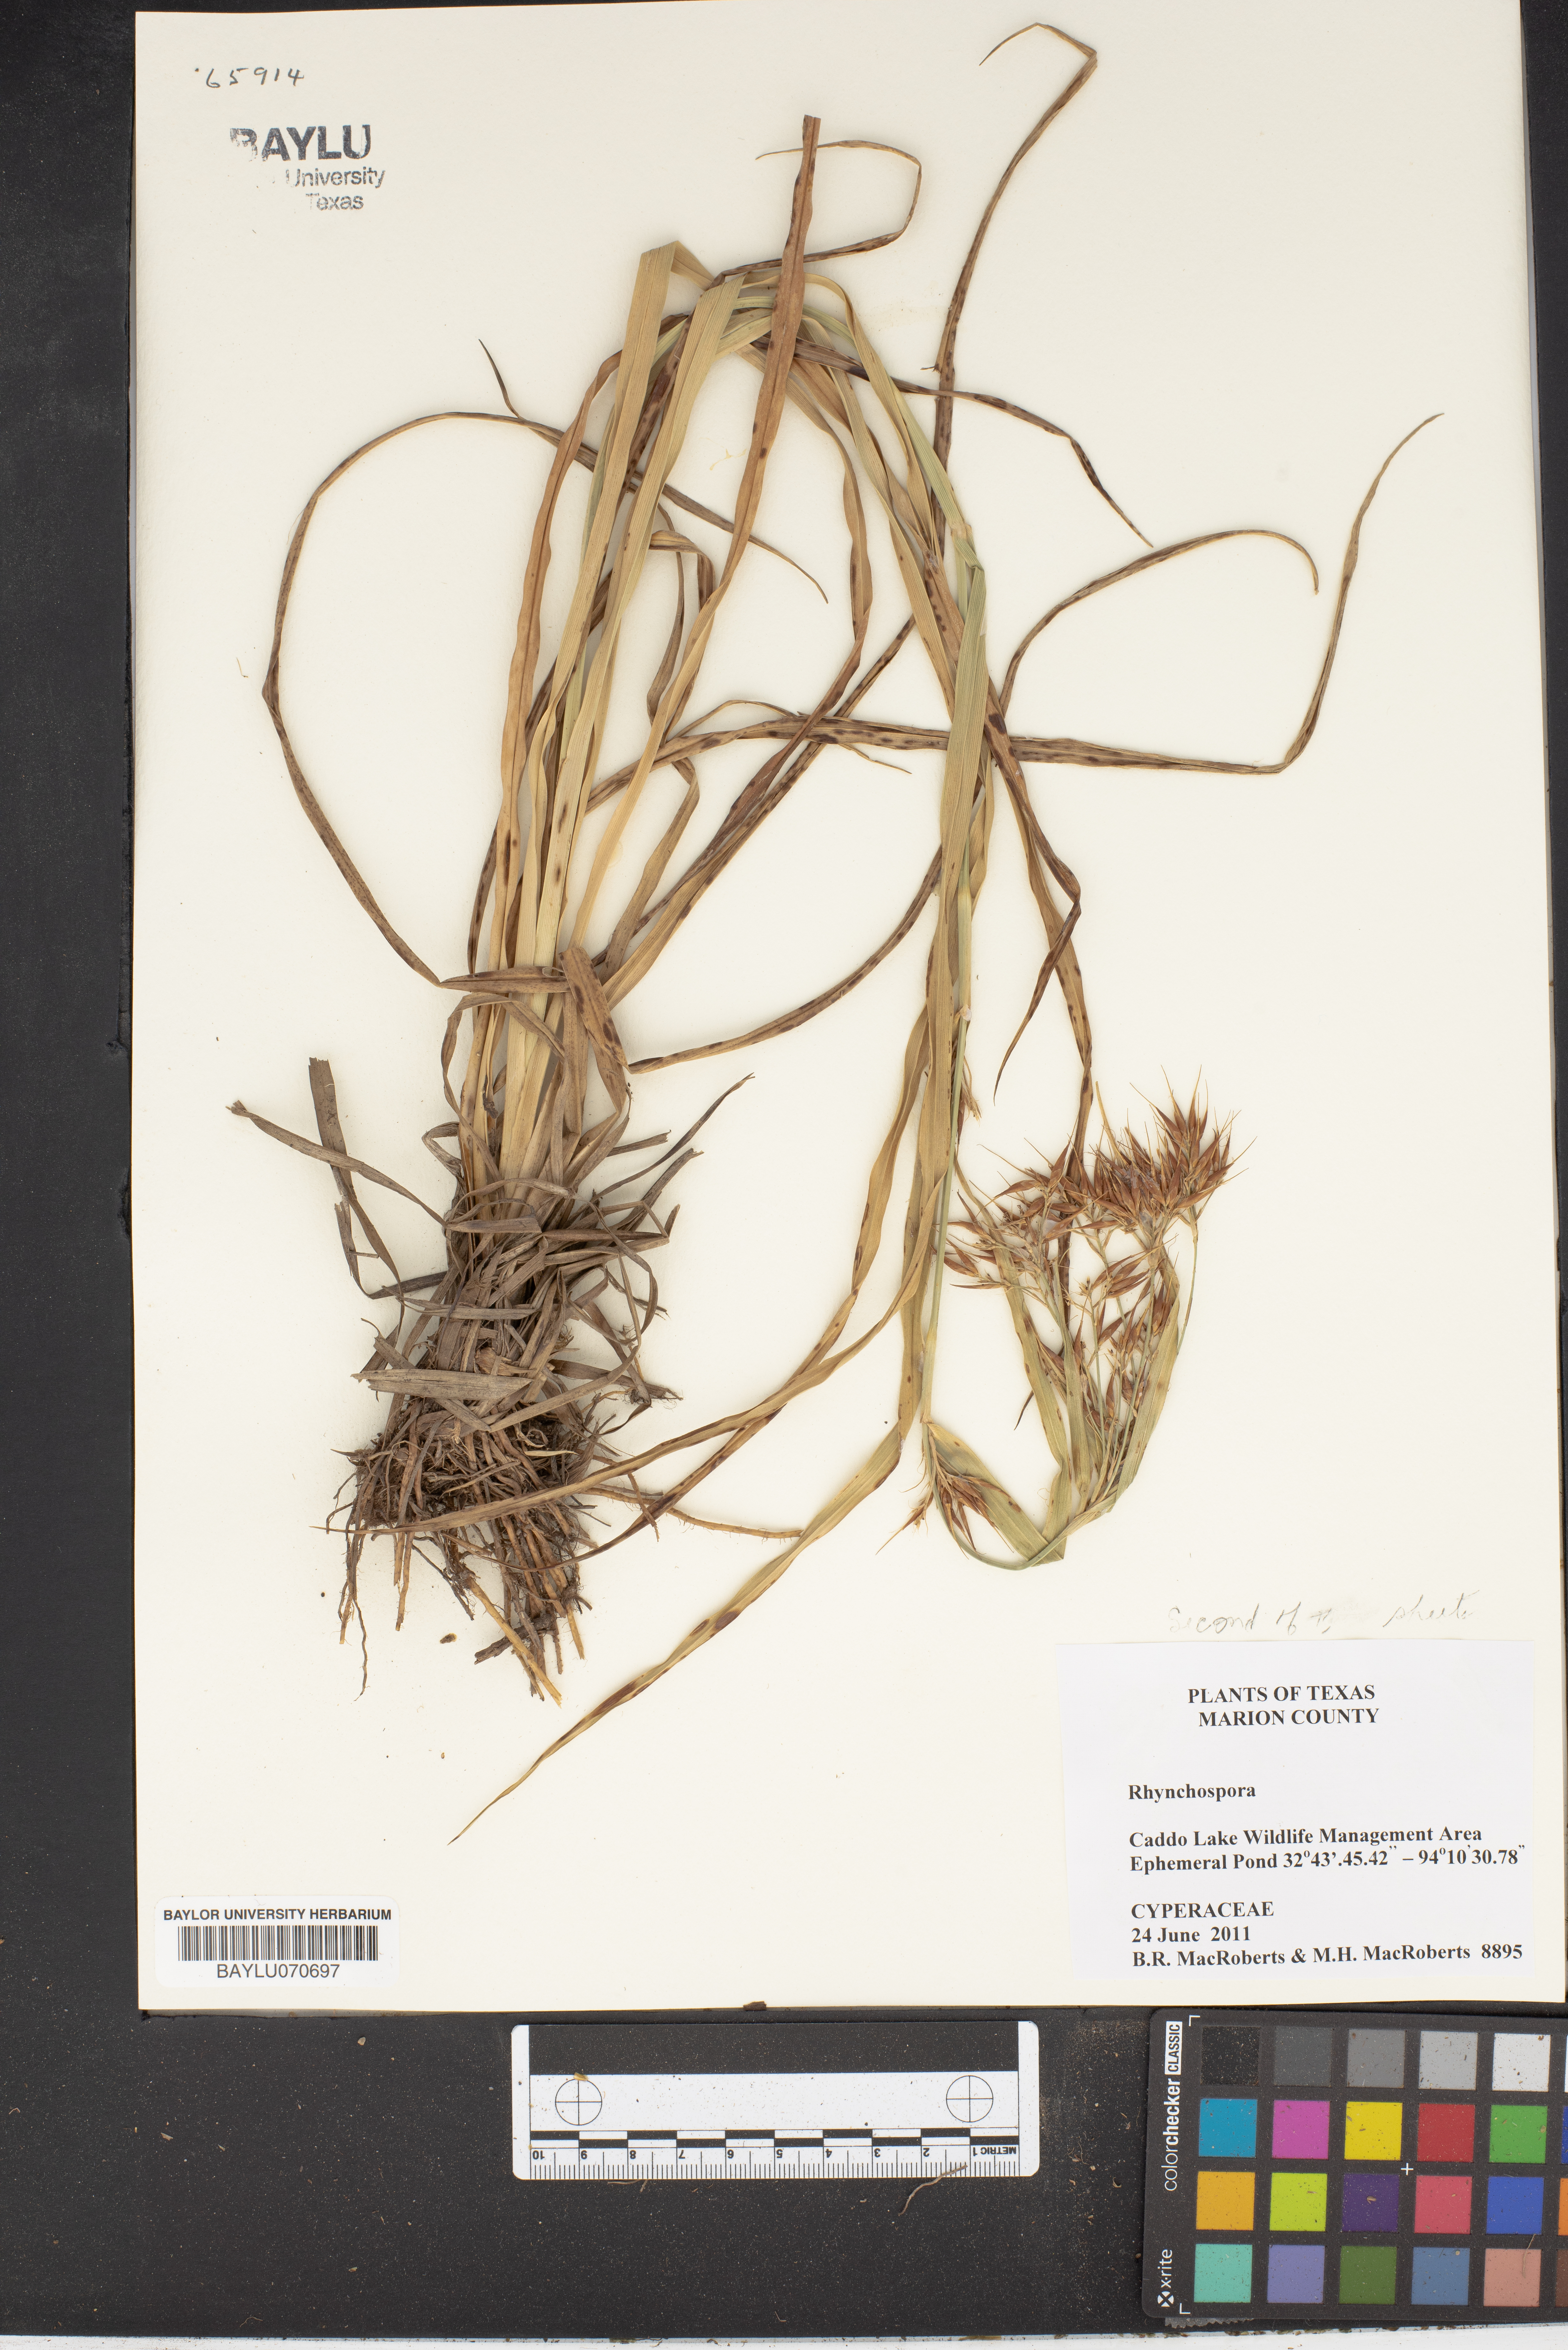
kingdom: Plantae
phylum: Tracheophyta
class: Liliopsida
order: Poales
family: Cyperaceae
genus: Rhynchospora
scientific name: Rhynchospora
